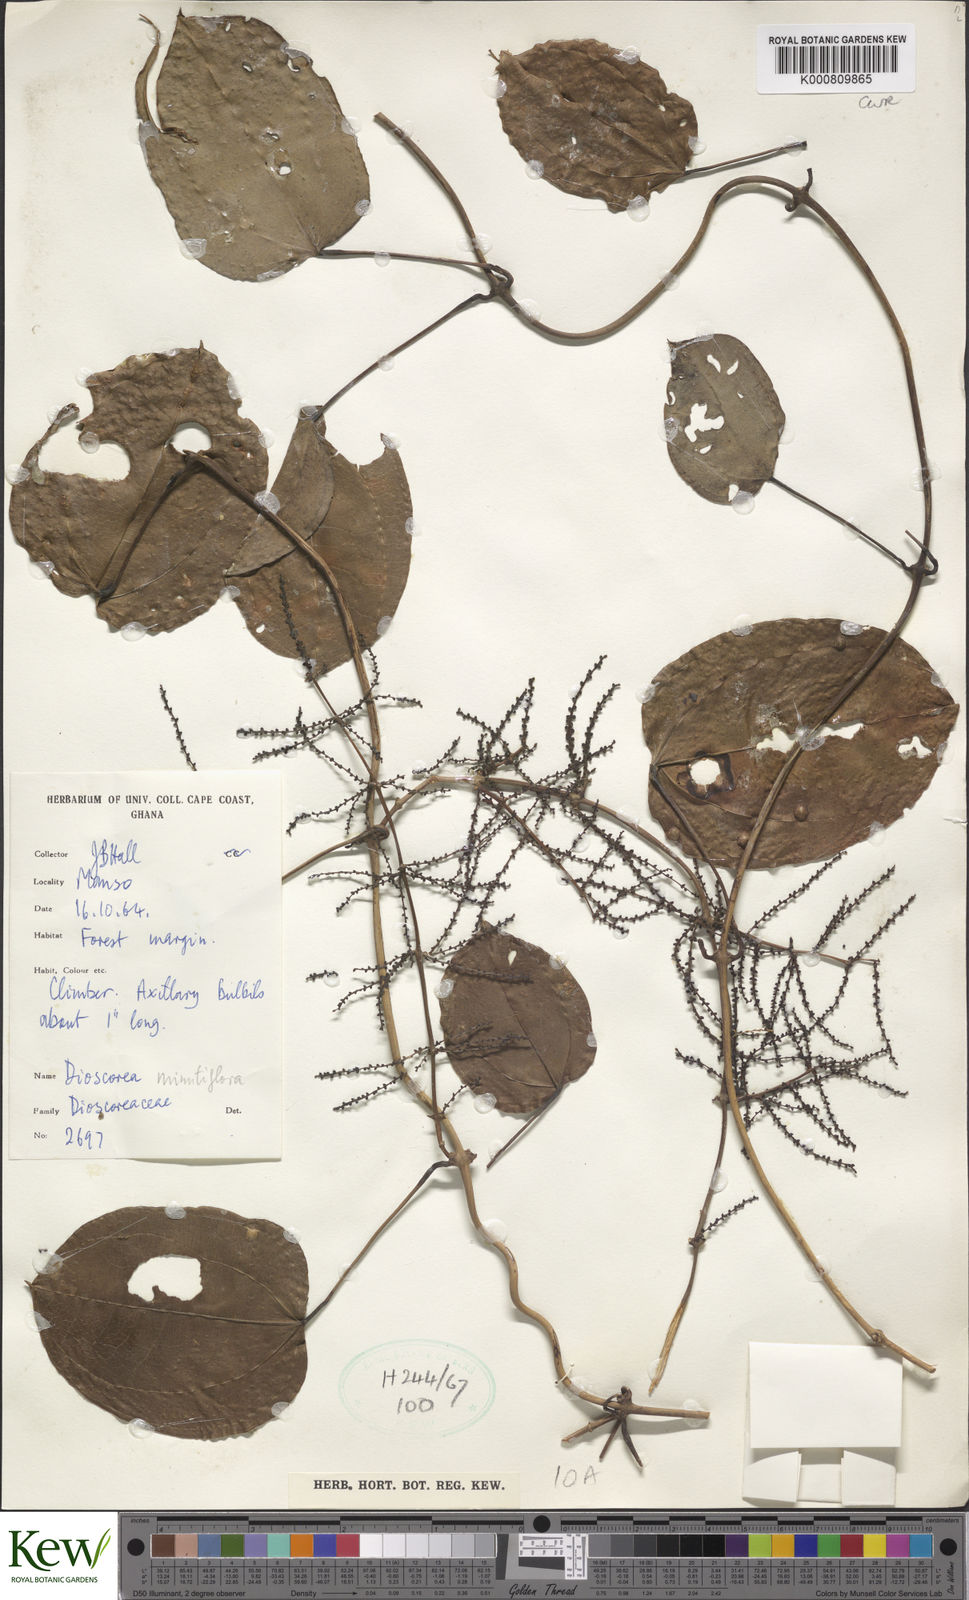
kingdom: Plantae
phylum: Tracheophyta
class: Liliopsida
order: Dioscoreales
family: Dioscoreaceae
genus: Dioscorea
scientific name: Dioscorea minutiflora
